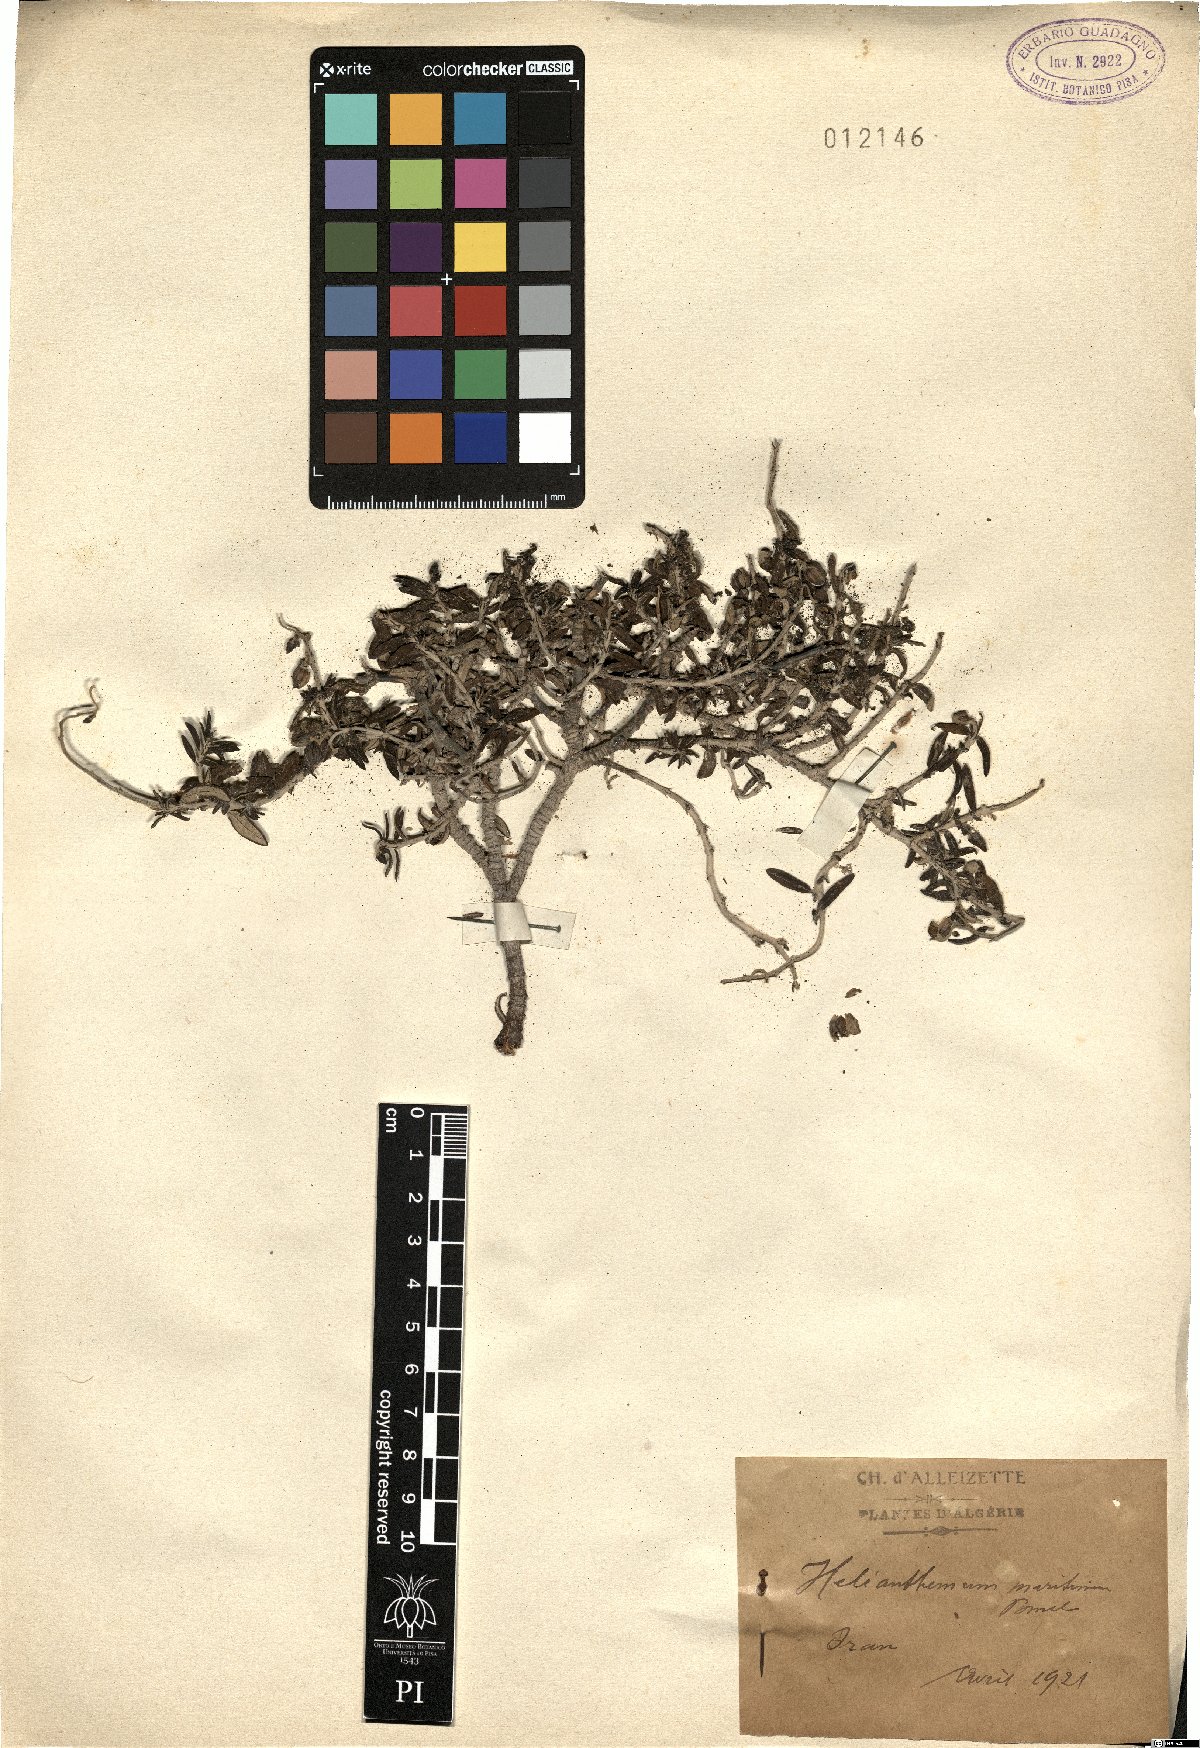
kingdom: Plantae
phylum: Tracheophyta
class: Magnoliopsida
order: Malvales
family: Cistaceae
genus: Helianthemum
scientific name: Helianthemum maritimum
